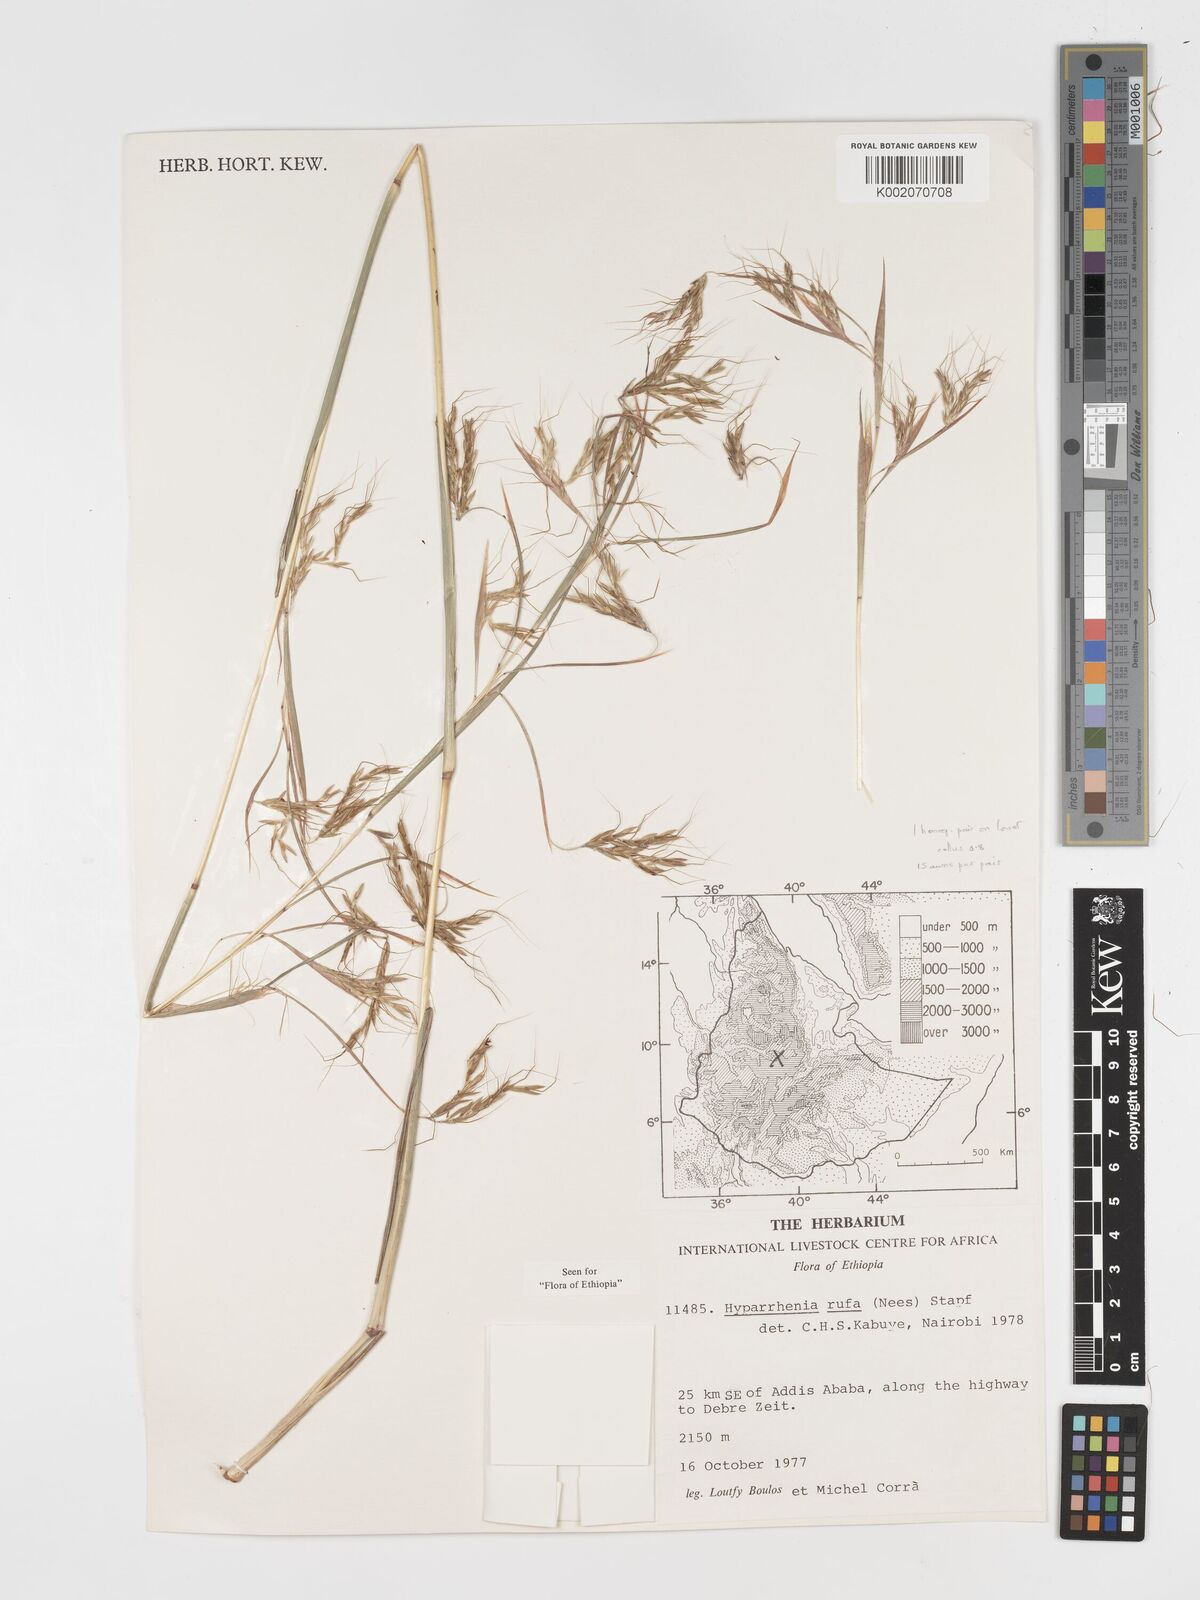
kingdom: Plantae
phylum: Tracheophyta
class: Liliopsida
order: Poales
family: Poaceae
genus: Hyparrhenia
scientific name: Hyparrhenia rufa
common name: Jaraguagrass
